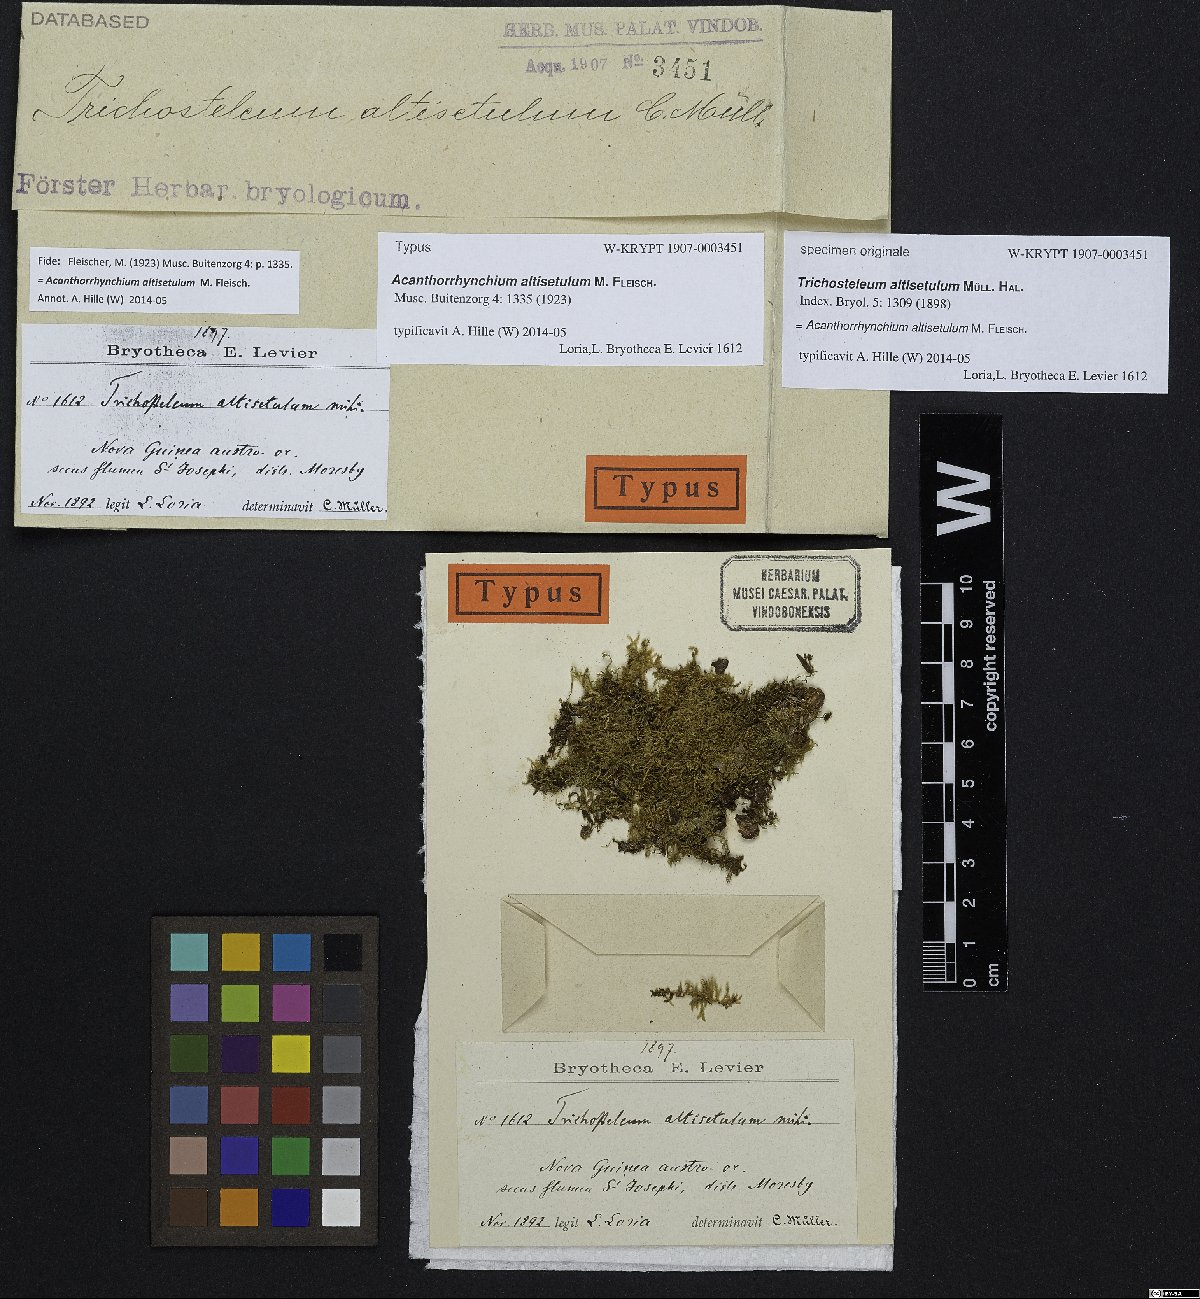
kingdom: Plantae
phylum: Bryophyta
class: Bryopsida
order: Hypnales
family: Sematophyllaceae
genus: Acanthorrhynchium
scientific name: Acanthorrhynchium altisetulum
